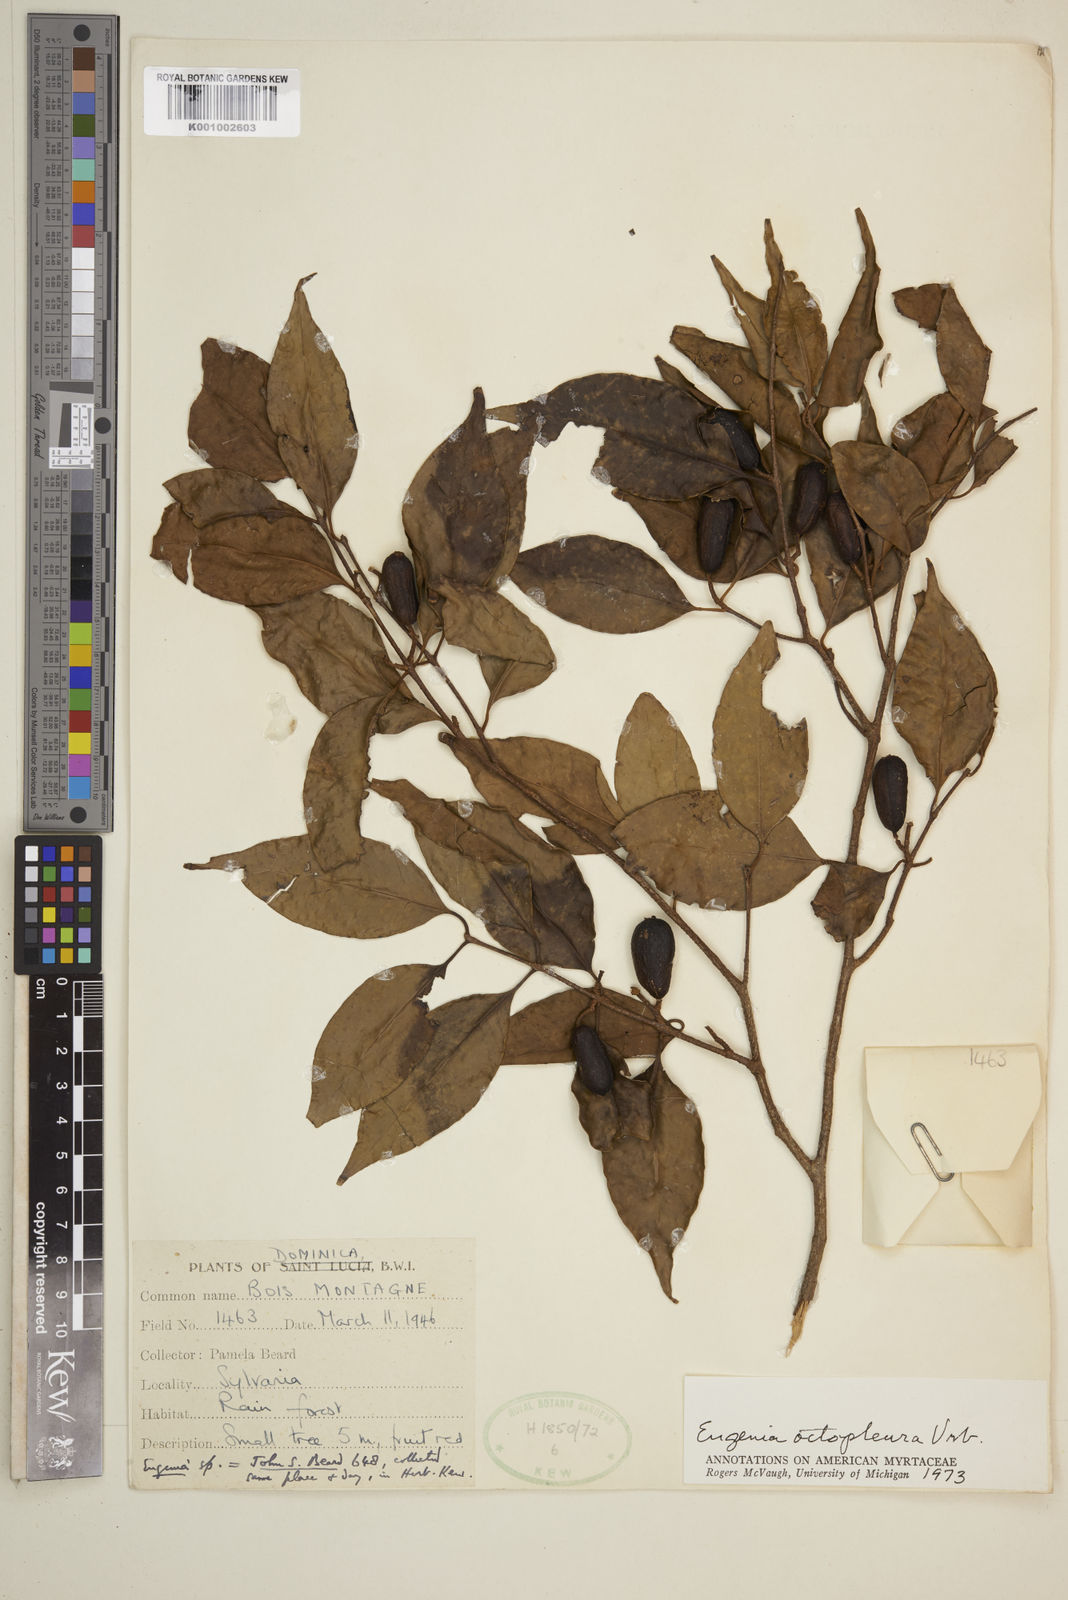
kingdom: Plantae
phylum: Tracheophyta
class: Magnoliopsida
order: Myrtales
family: Myrtaceae
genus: Eugenia
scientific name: Eugenia octopleura
